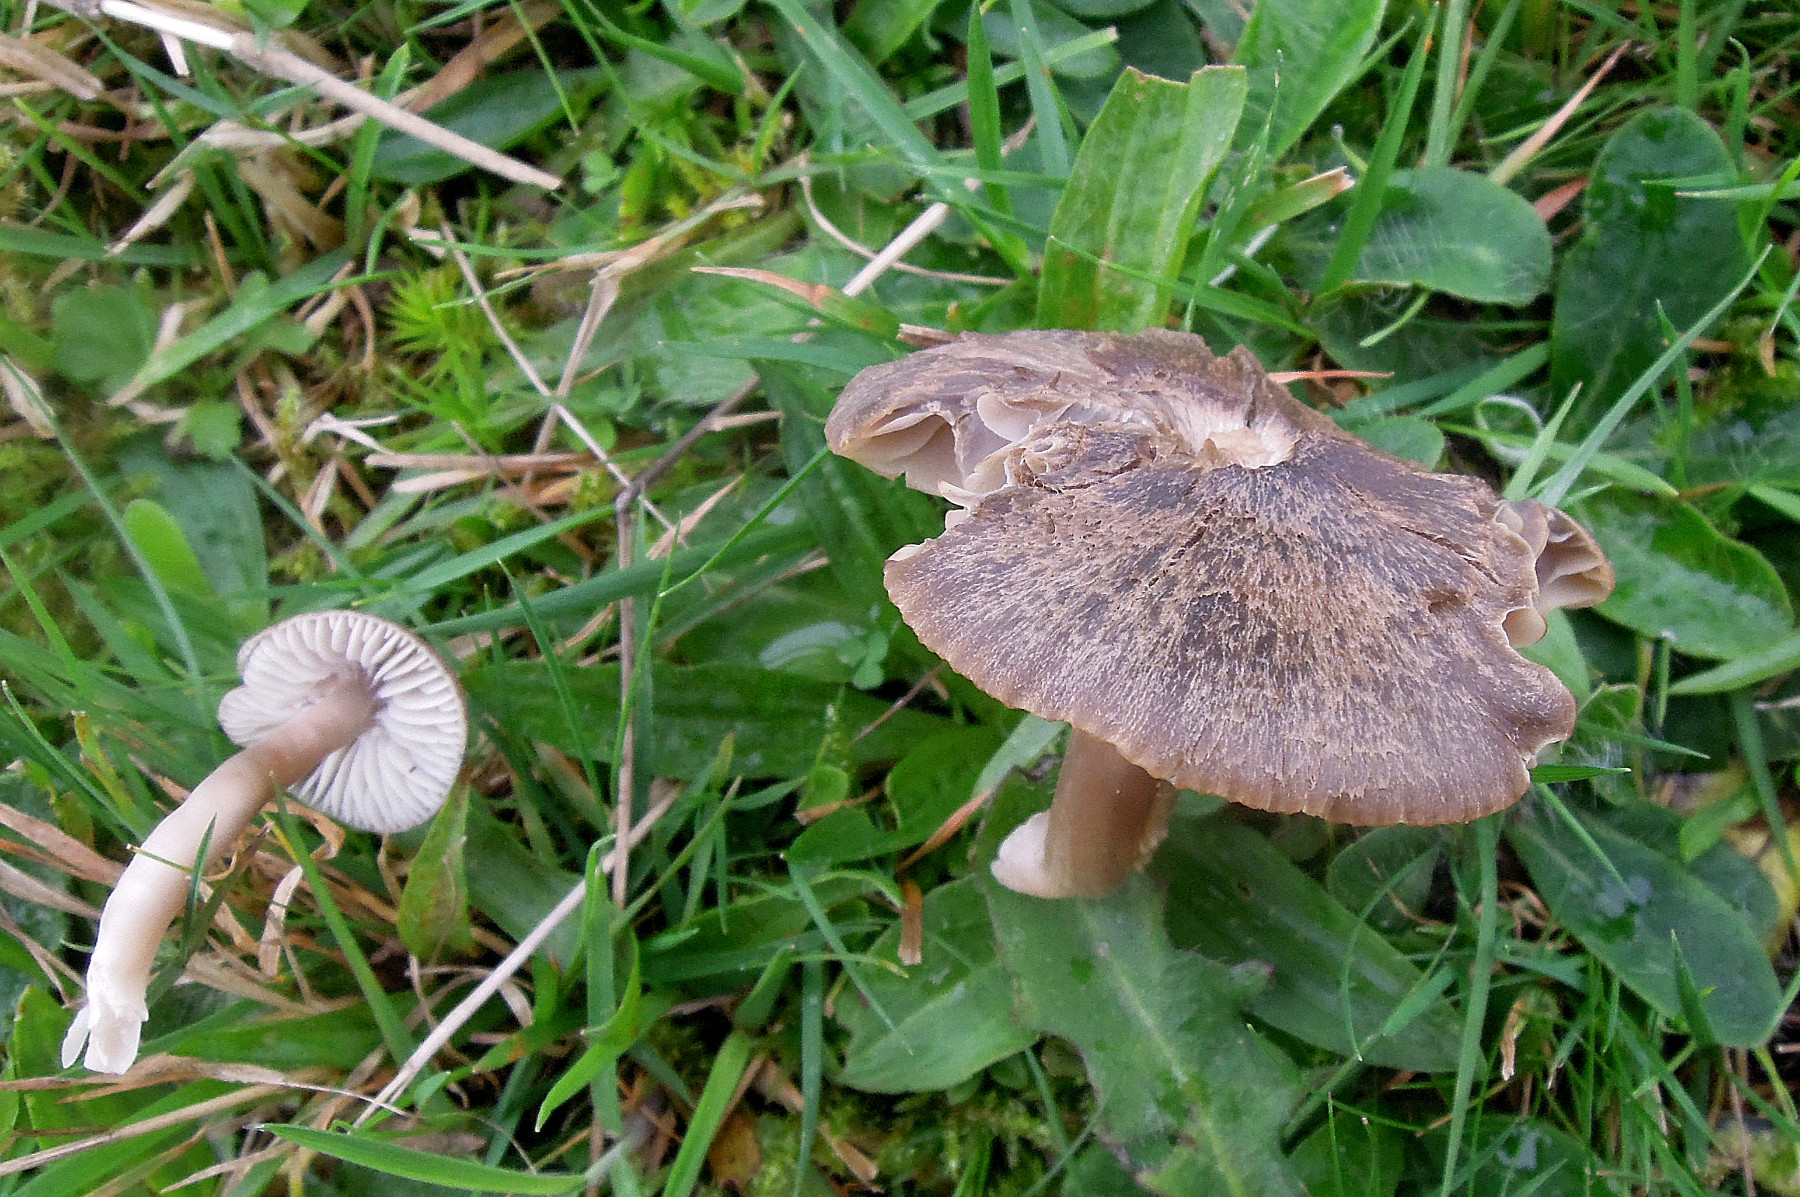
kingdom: Fungi
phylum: Basidiomycota
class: Agaricomycetes
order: Agaricales
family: Hygrophoraceae
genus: Neohygrocybe
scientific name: Neohygrocybe nitrata
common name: stinkende vokshat
